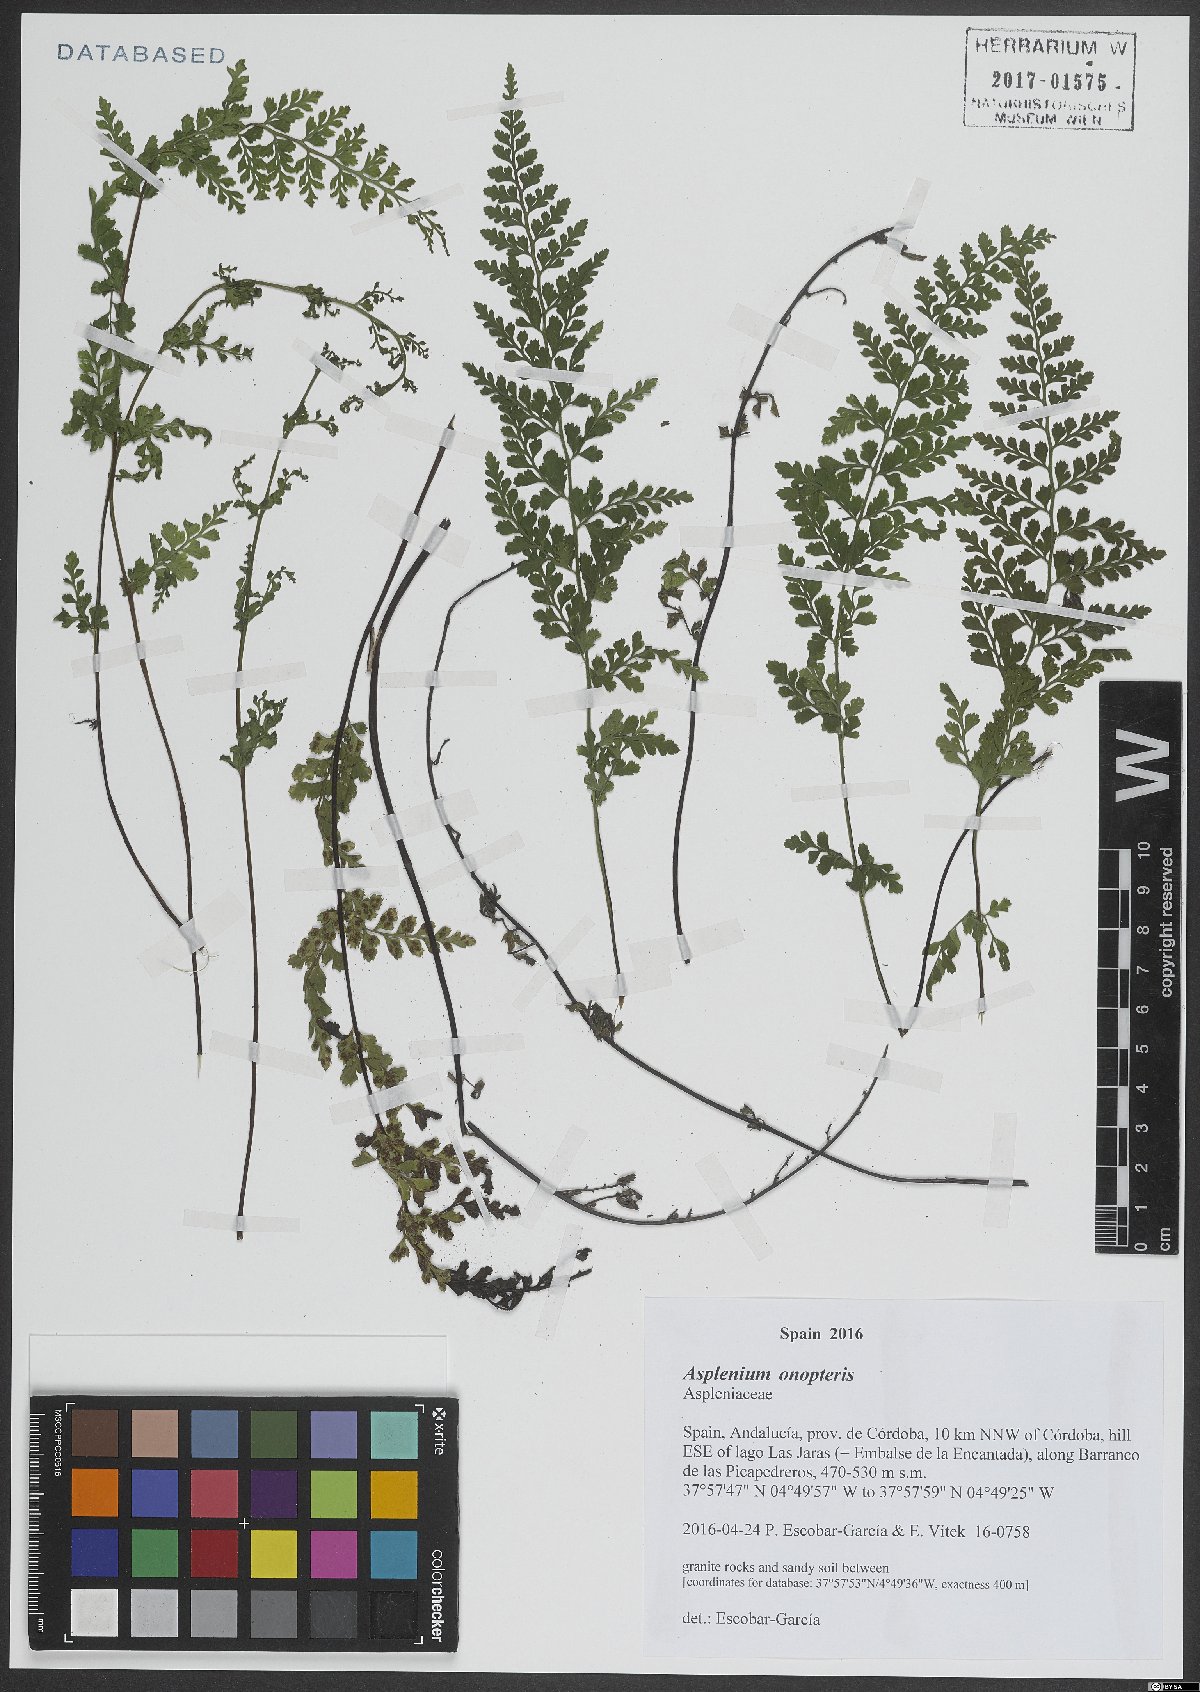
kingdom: Plantae
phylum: Tracheophyta
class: Polypodiopsida
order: Polypodiales
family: Aspleniaceae
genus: Asplenium
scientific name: Asplenium fontanum
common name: Fountain spleenwort
